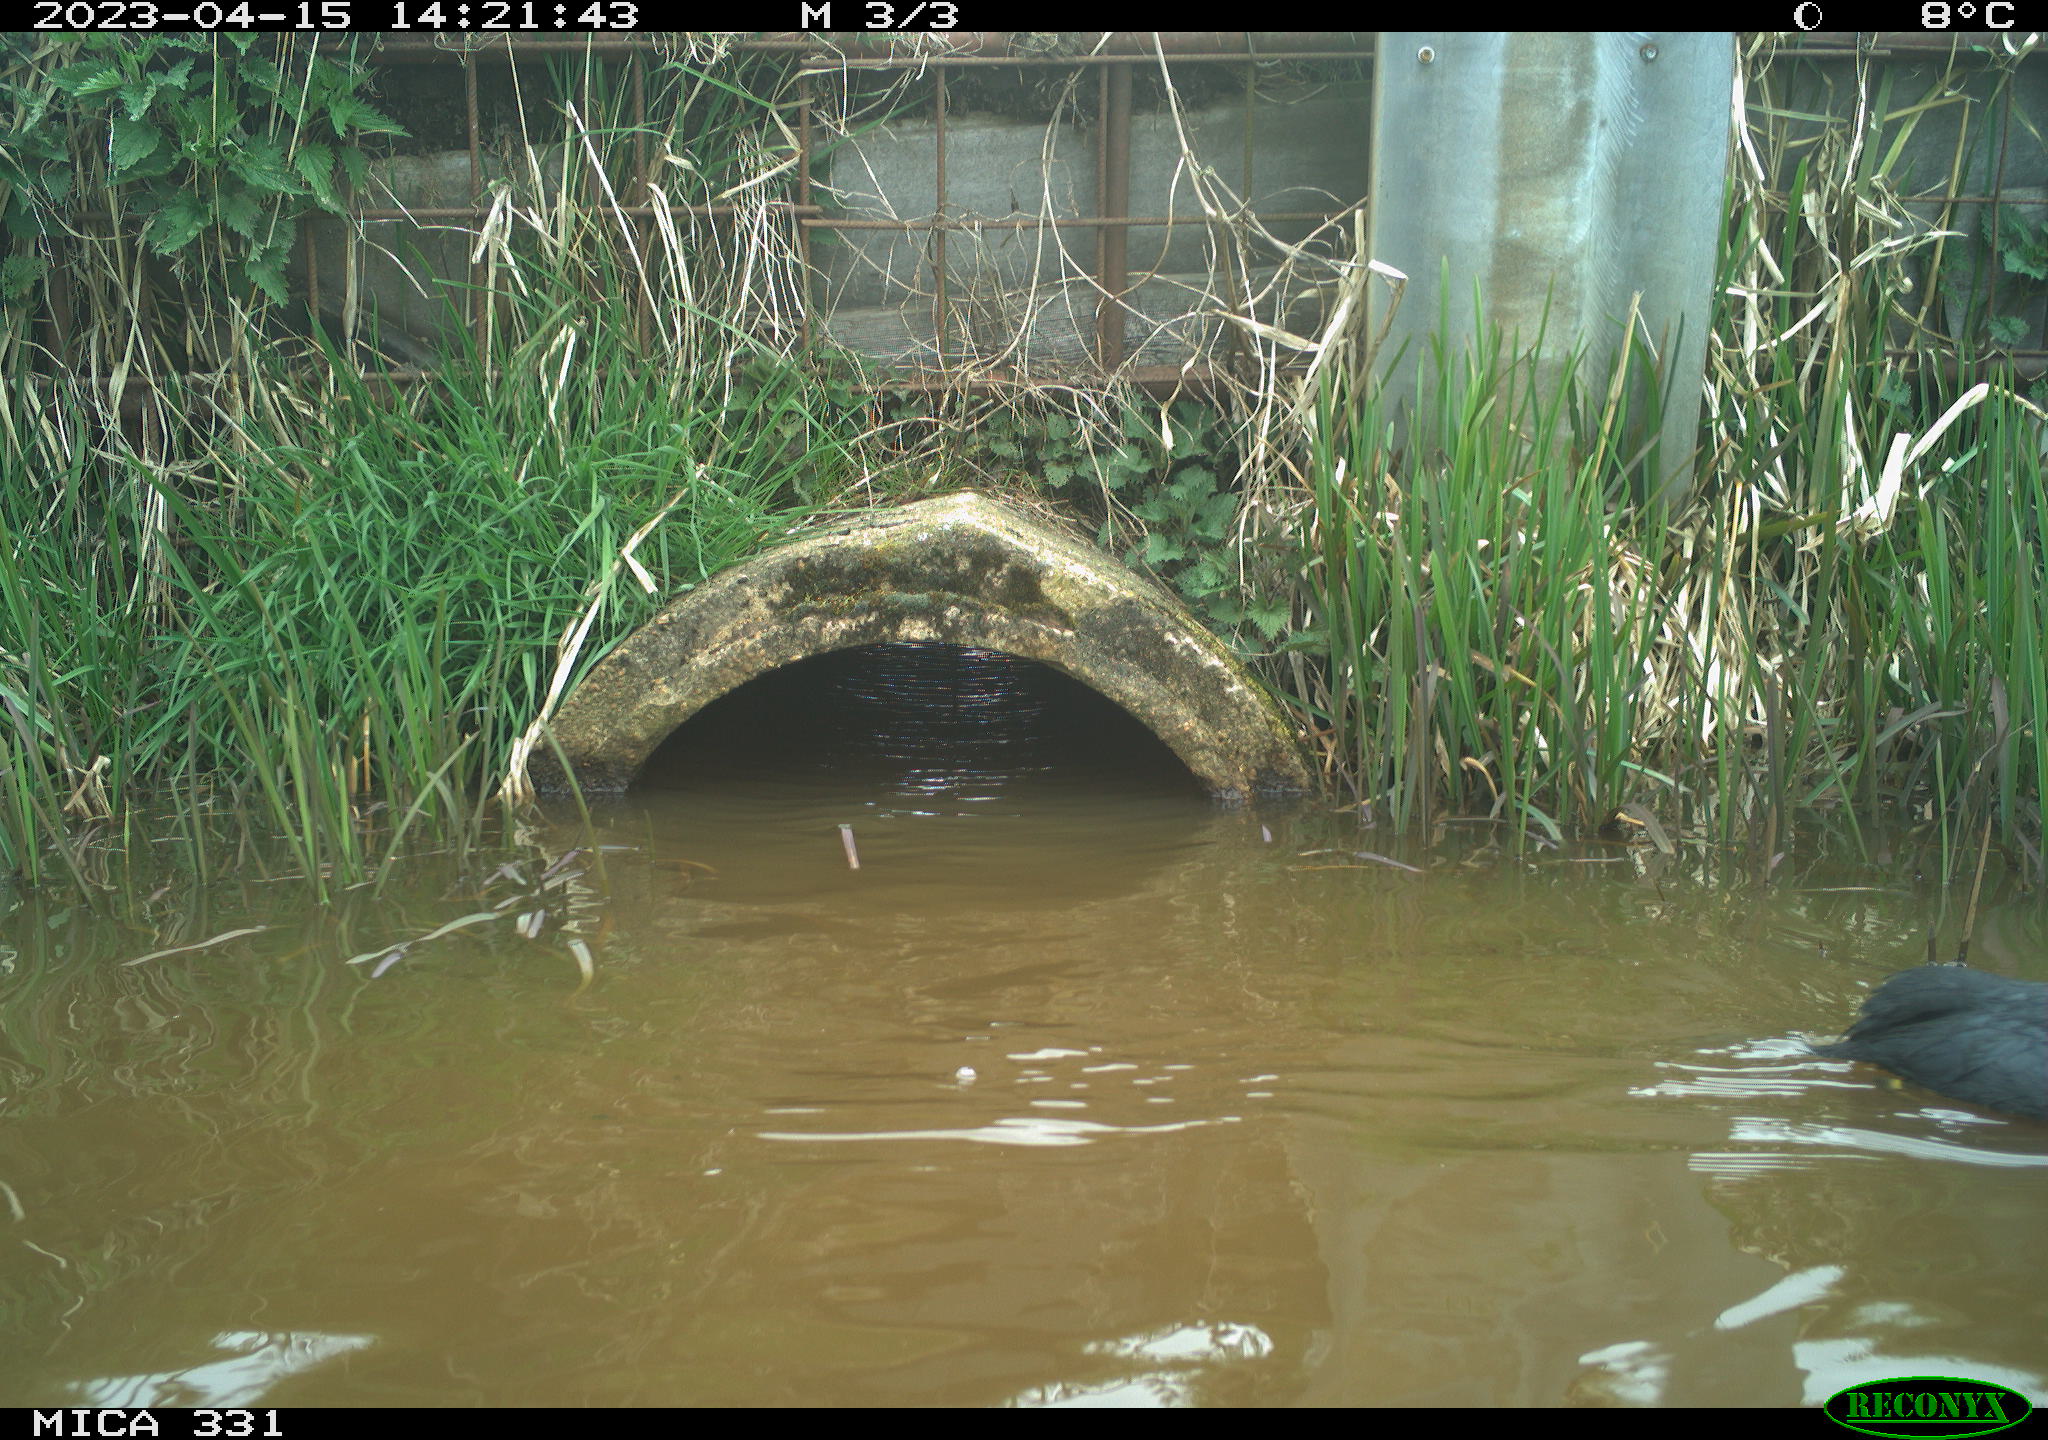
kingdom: Animalia
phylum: Chordata
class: Aves
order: Gruiformes
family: Rallidae
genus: Fulica
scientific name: Fulica atra
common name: Eurasian coot
